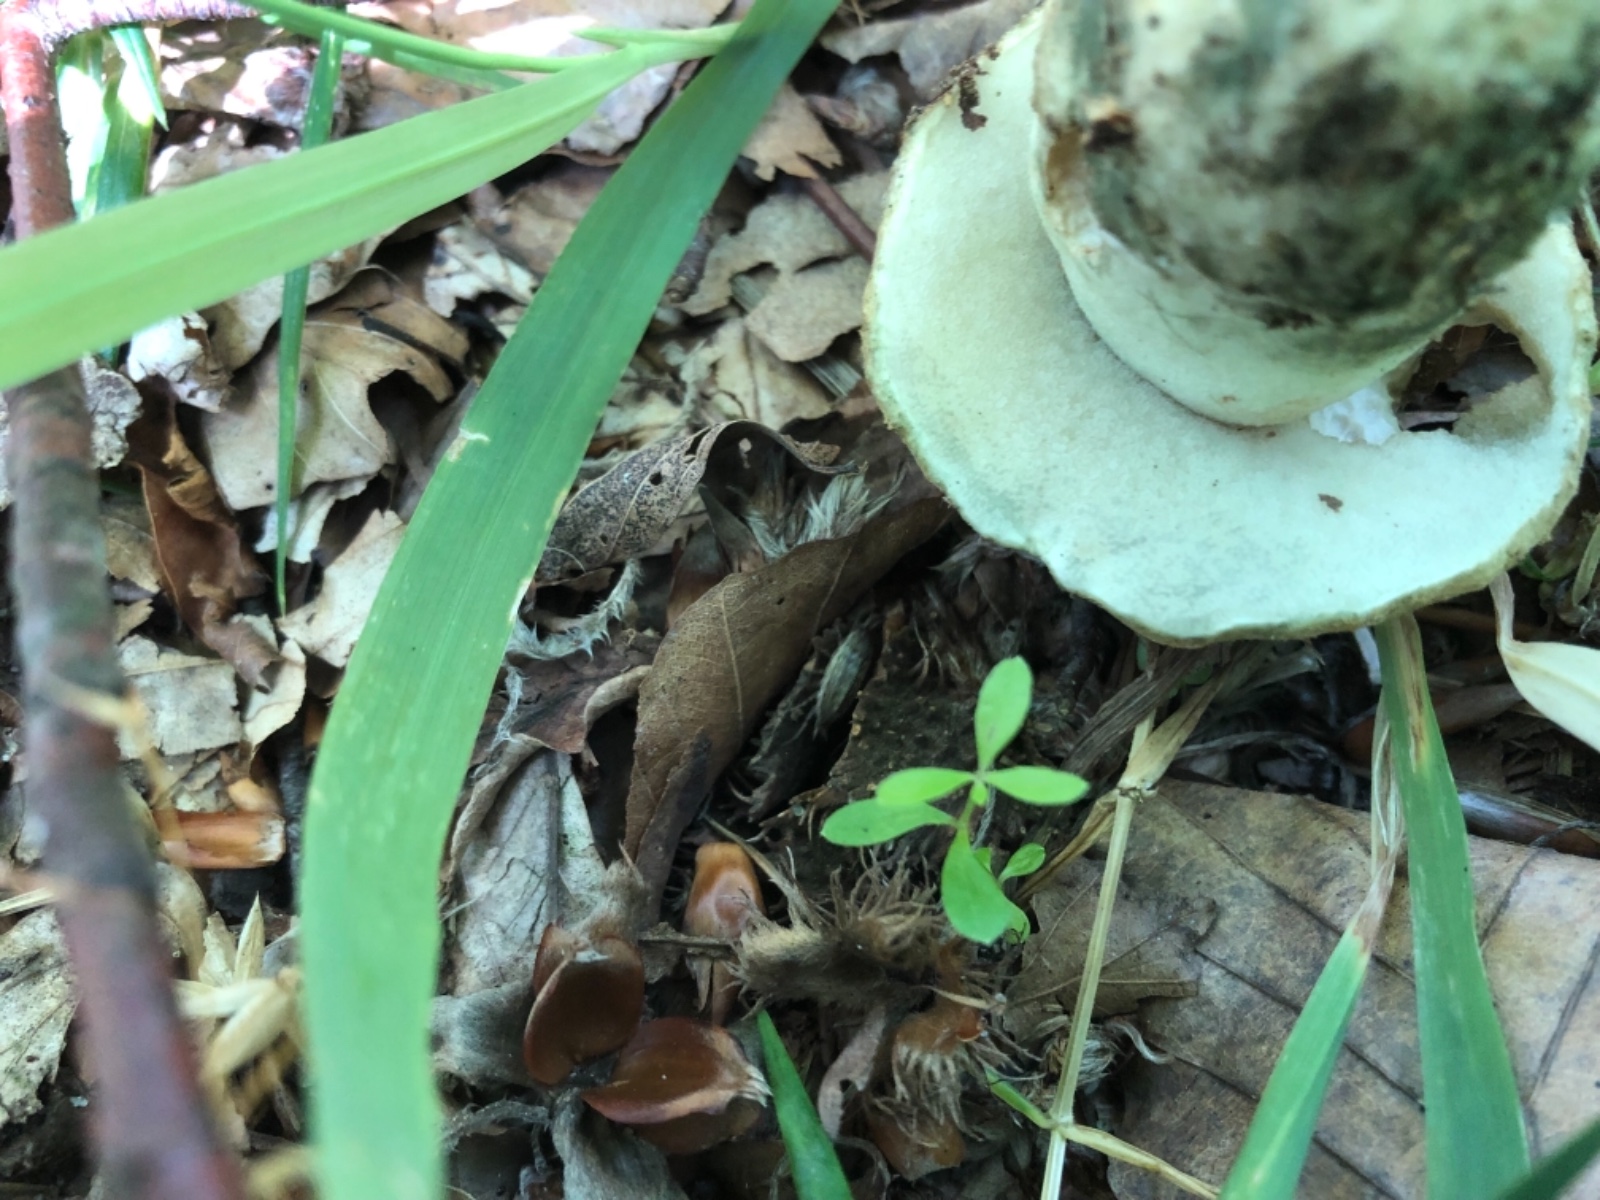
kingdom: Fungi
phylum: Basidiomycota
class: Agaricomycetes
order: Boletales
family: Gyroporaceae
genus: Gyroporus
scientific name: Gyroporus cyanescens
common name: blånende kammerrørhat
